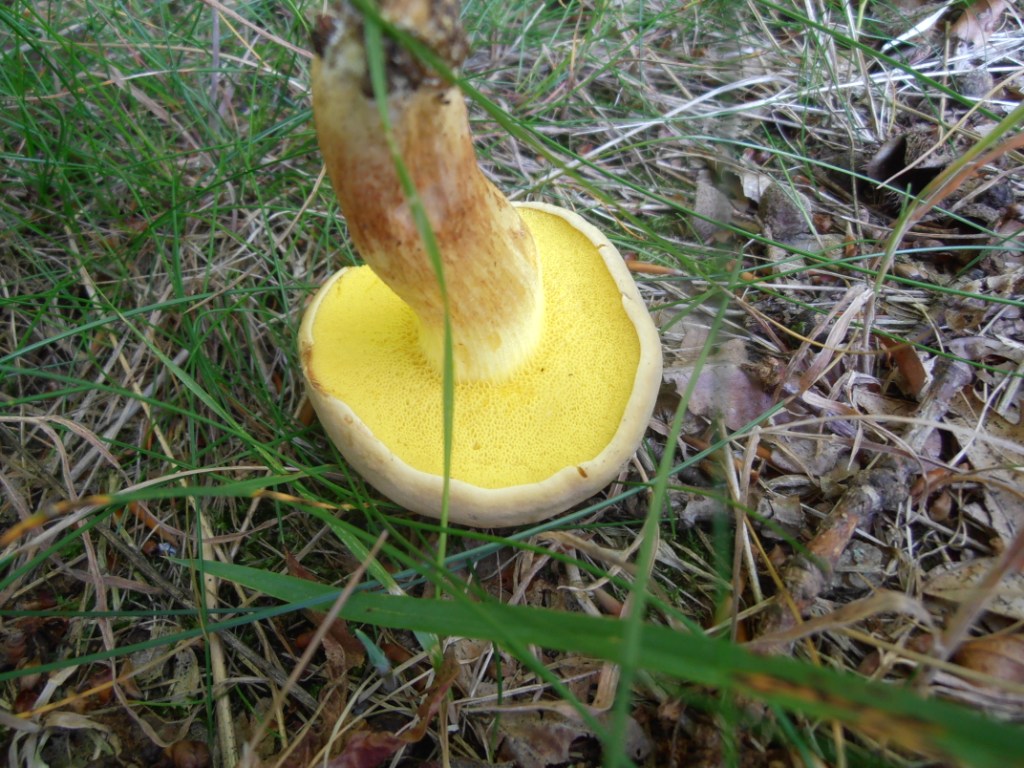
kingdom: Fungi
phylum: Basidiomycota
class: Agaricomycetes
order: Boletales
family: Boletaceae
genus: Xerocomus
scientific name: Xerocomus ferrugineus
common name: vaskeskinds-rørhat
